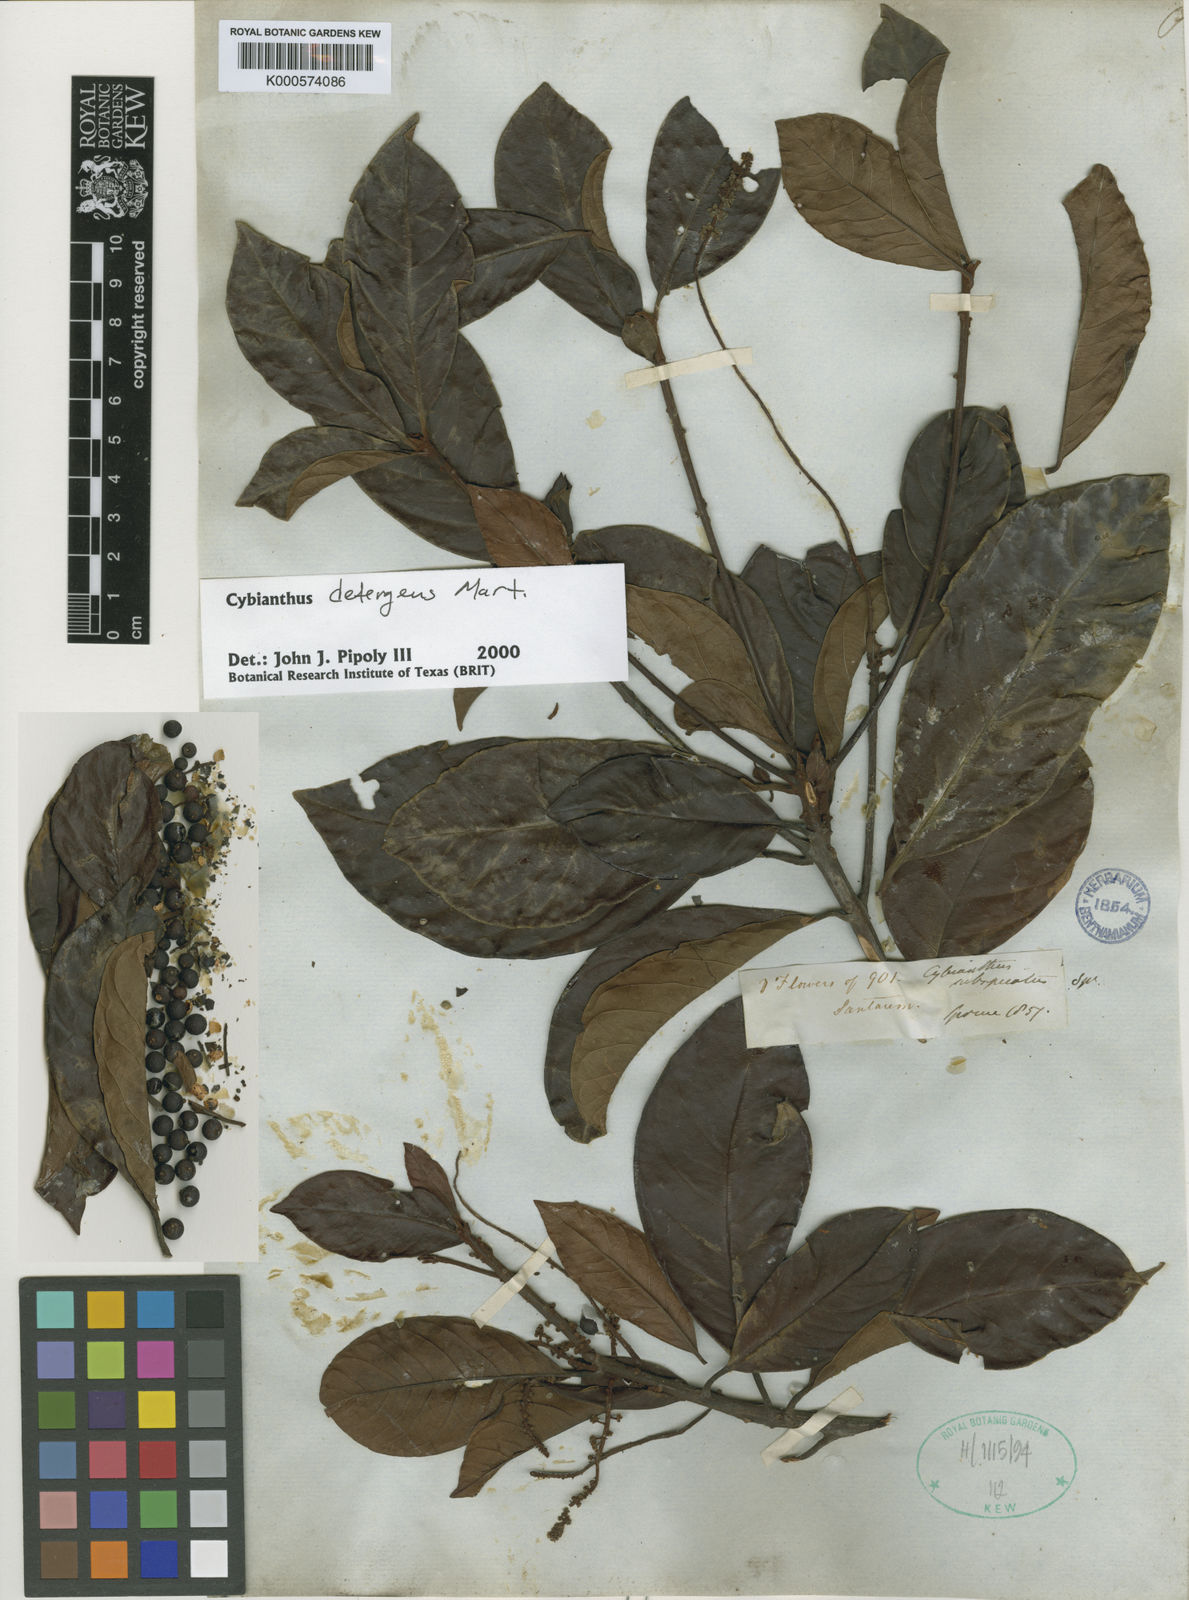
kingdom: Plantae
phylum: Tracheophyta
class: Magnoliopsida
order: Ericales
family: Primulaceae
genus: Cybianthus
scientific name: Cybianthus detergens
